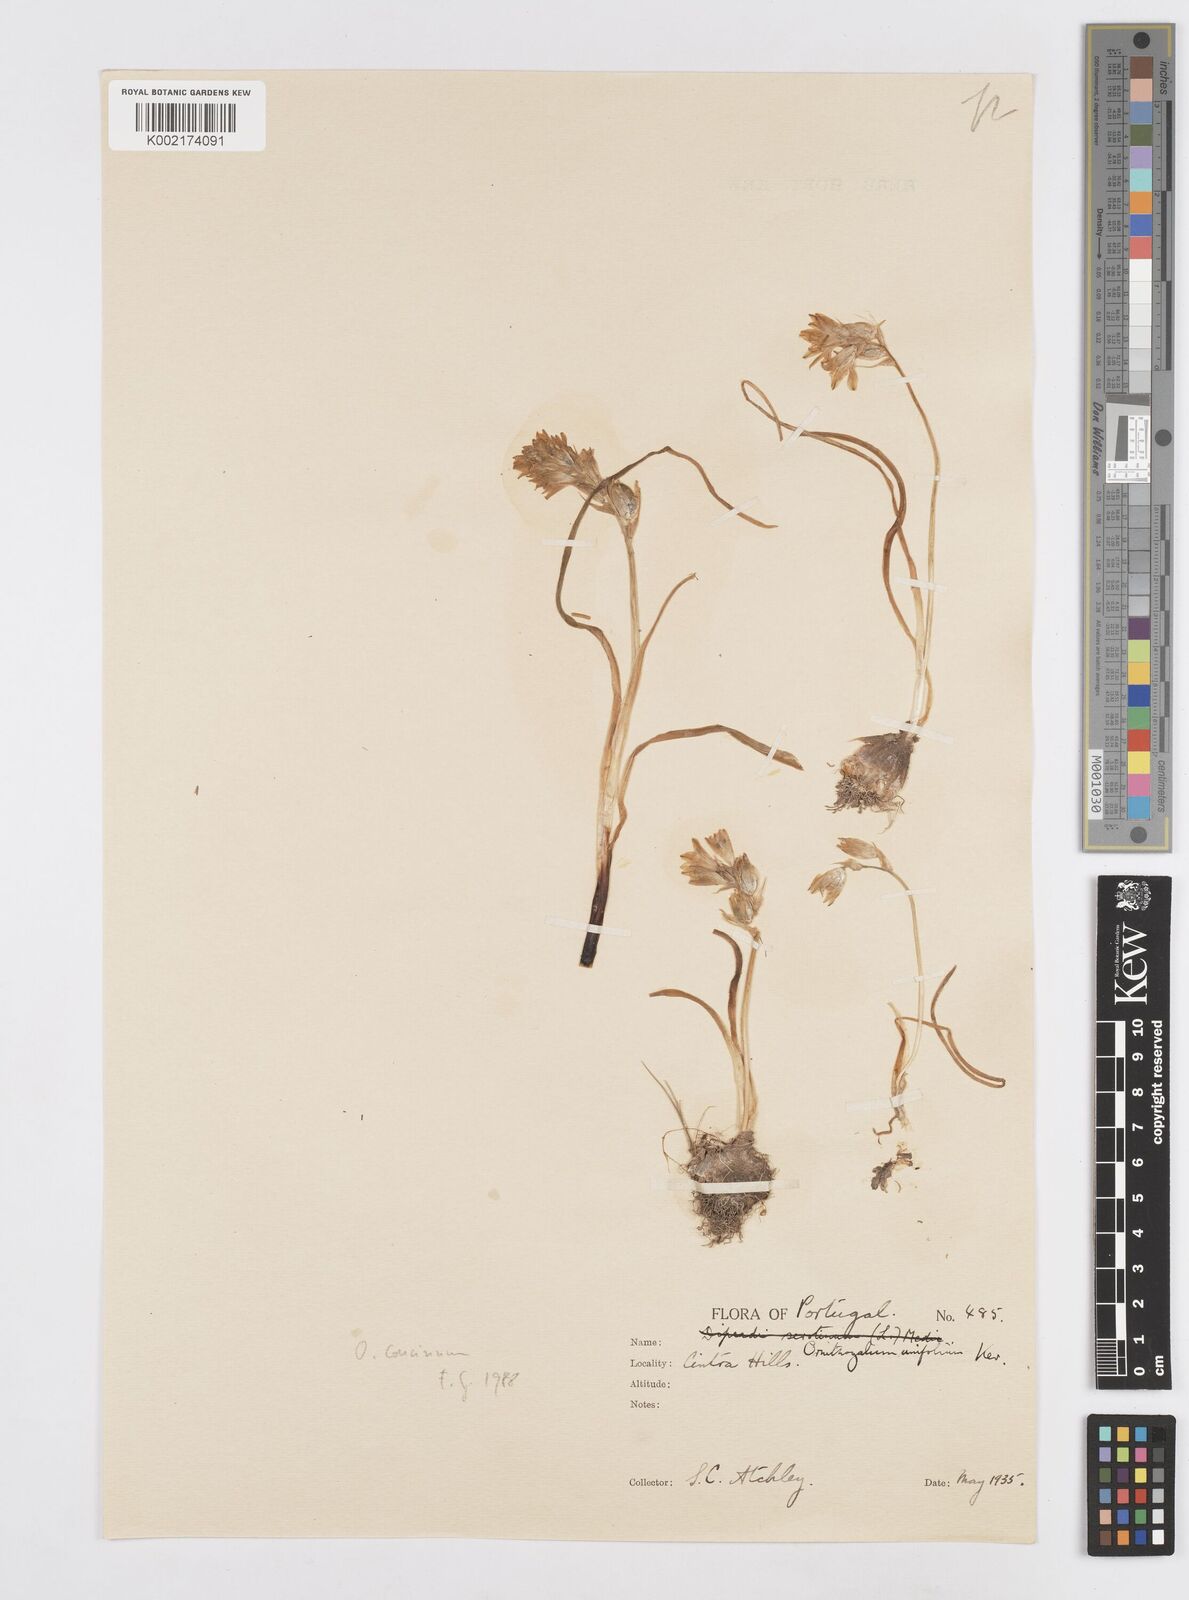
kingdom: Plantae
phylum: Tracheophyta
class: Liliopsida
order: Asparagales
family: Asparagaceae
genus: Ornithogalum
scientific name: Ornithogalum concinnum
